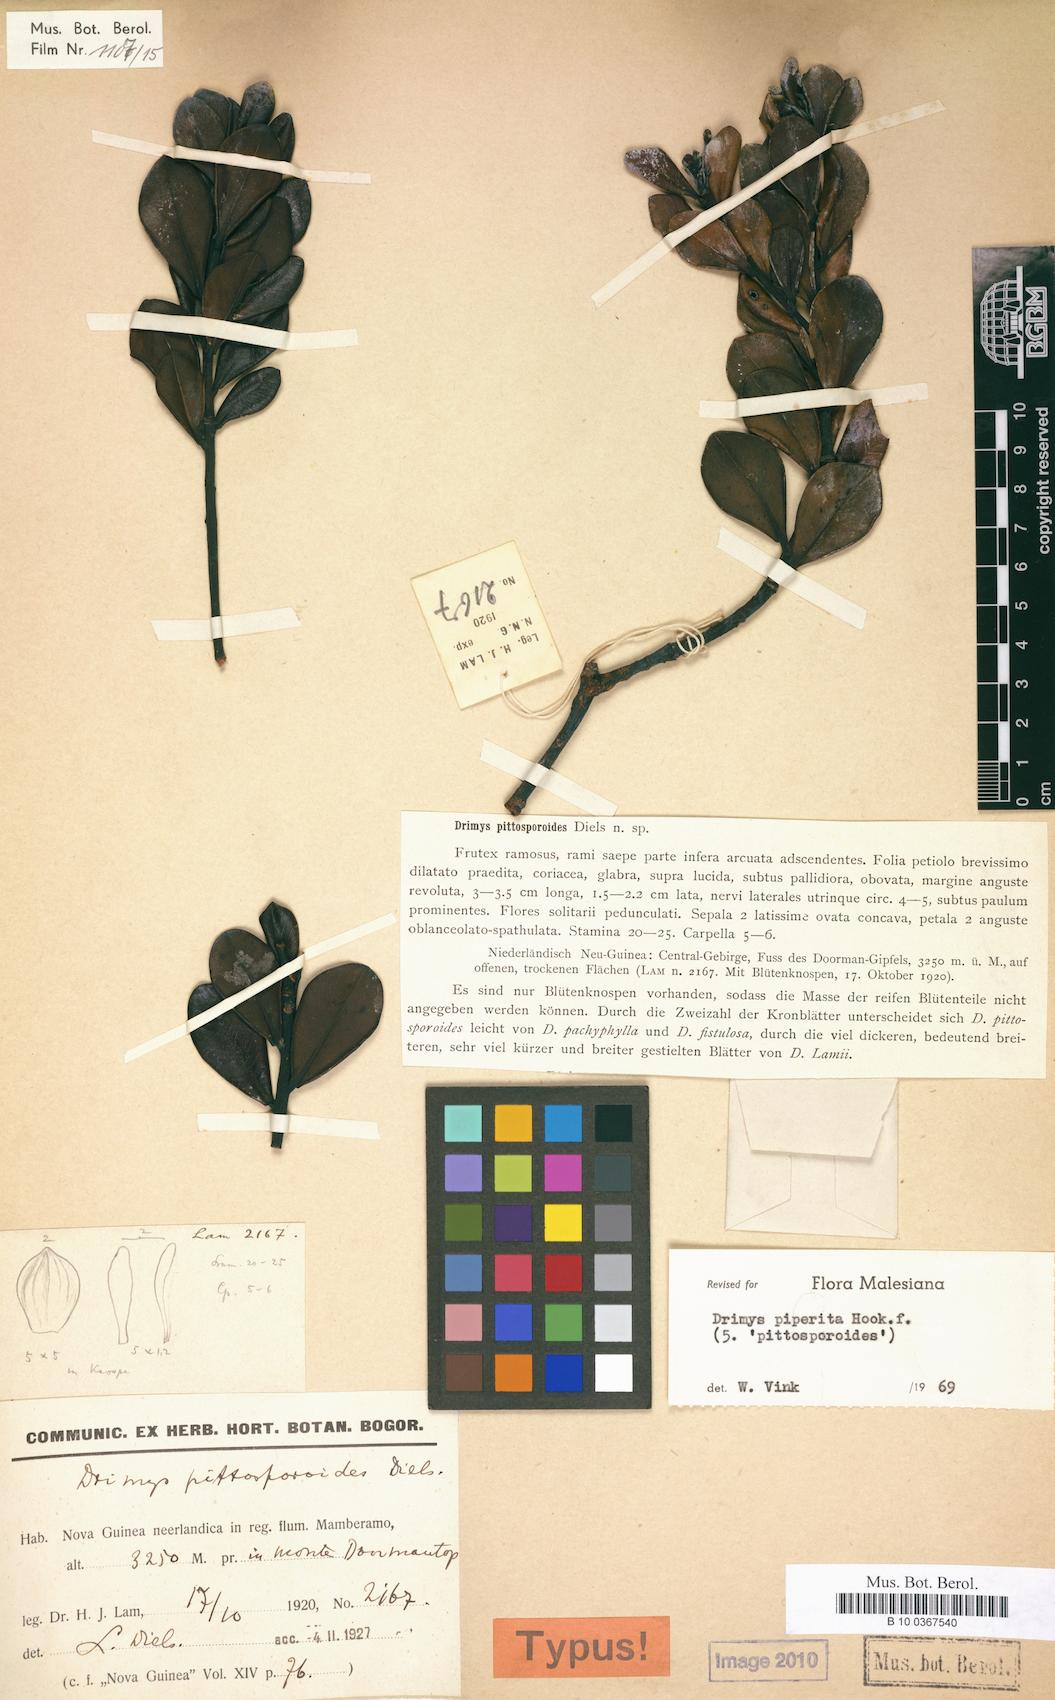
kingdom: Plantae
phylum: Tracheophyta
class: Magnoliopsida
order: Canellales
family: Winteraceae
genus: Drimys
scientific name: Drimys piperita
